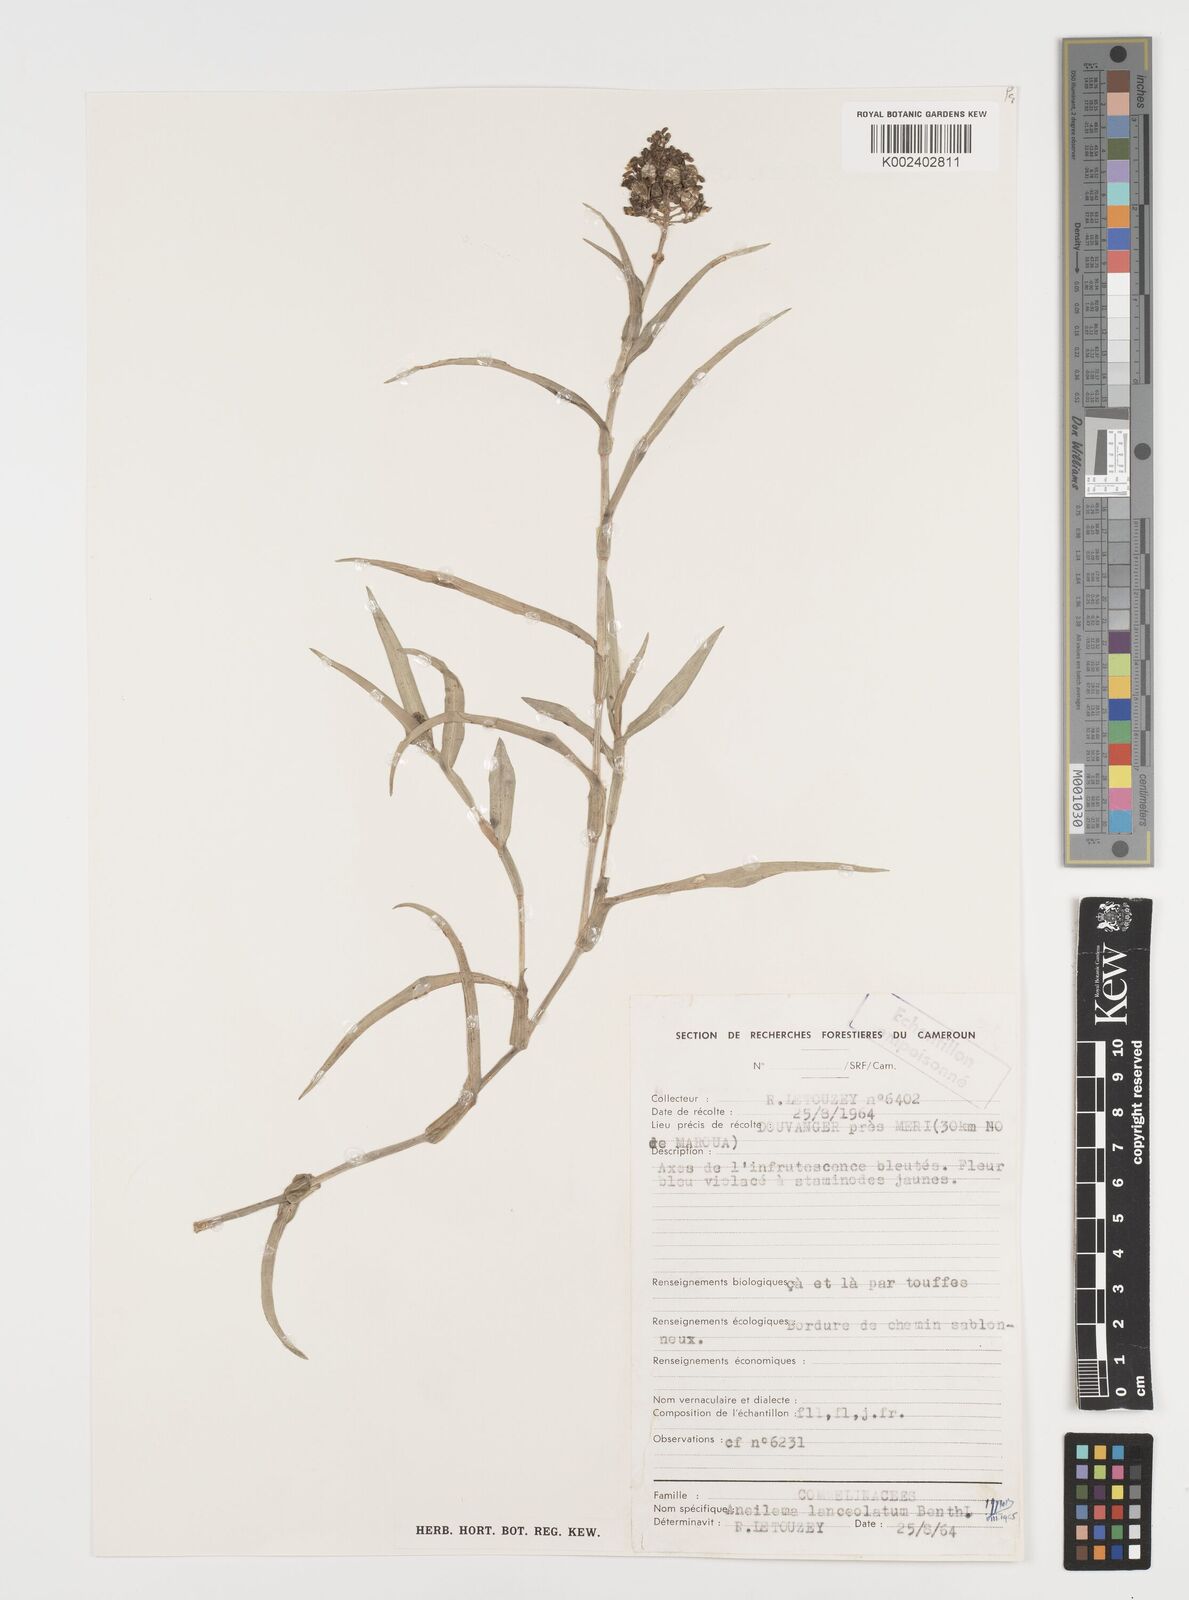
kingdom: Plantae
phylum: Tracheophyta
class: Liliopsida
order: Commelinales
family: Commelinaceae
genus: Aneilema
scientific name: Aneilema lanceolatum
